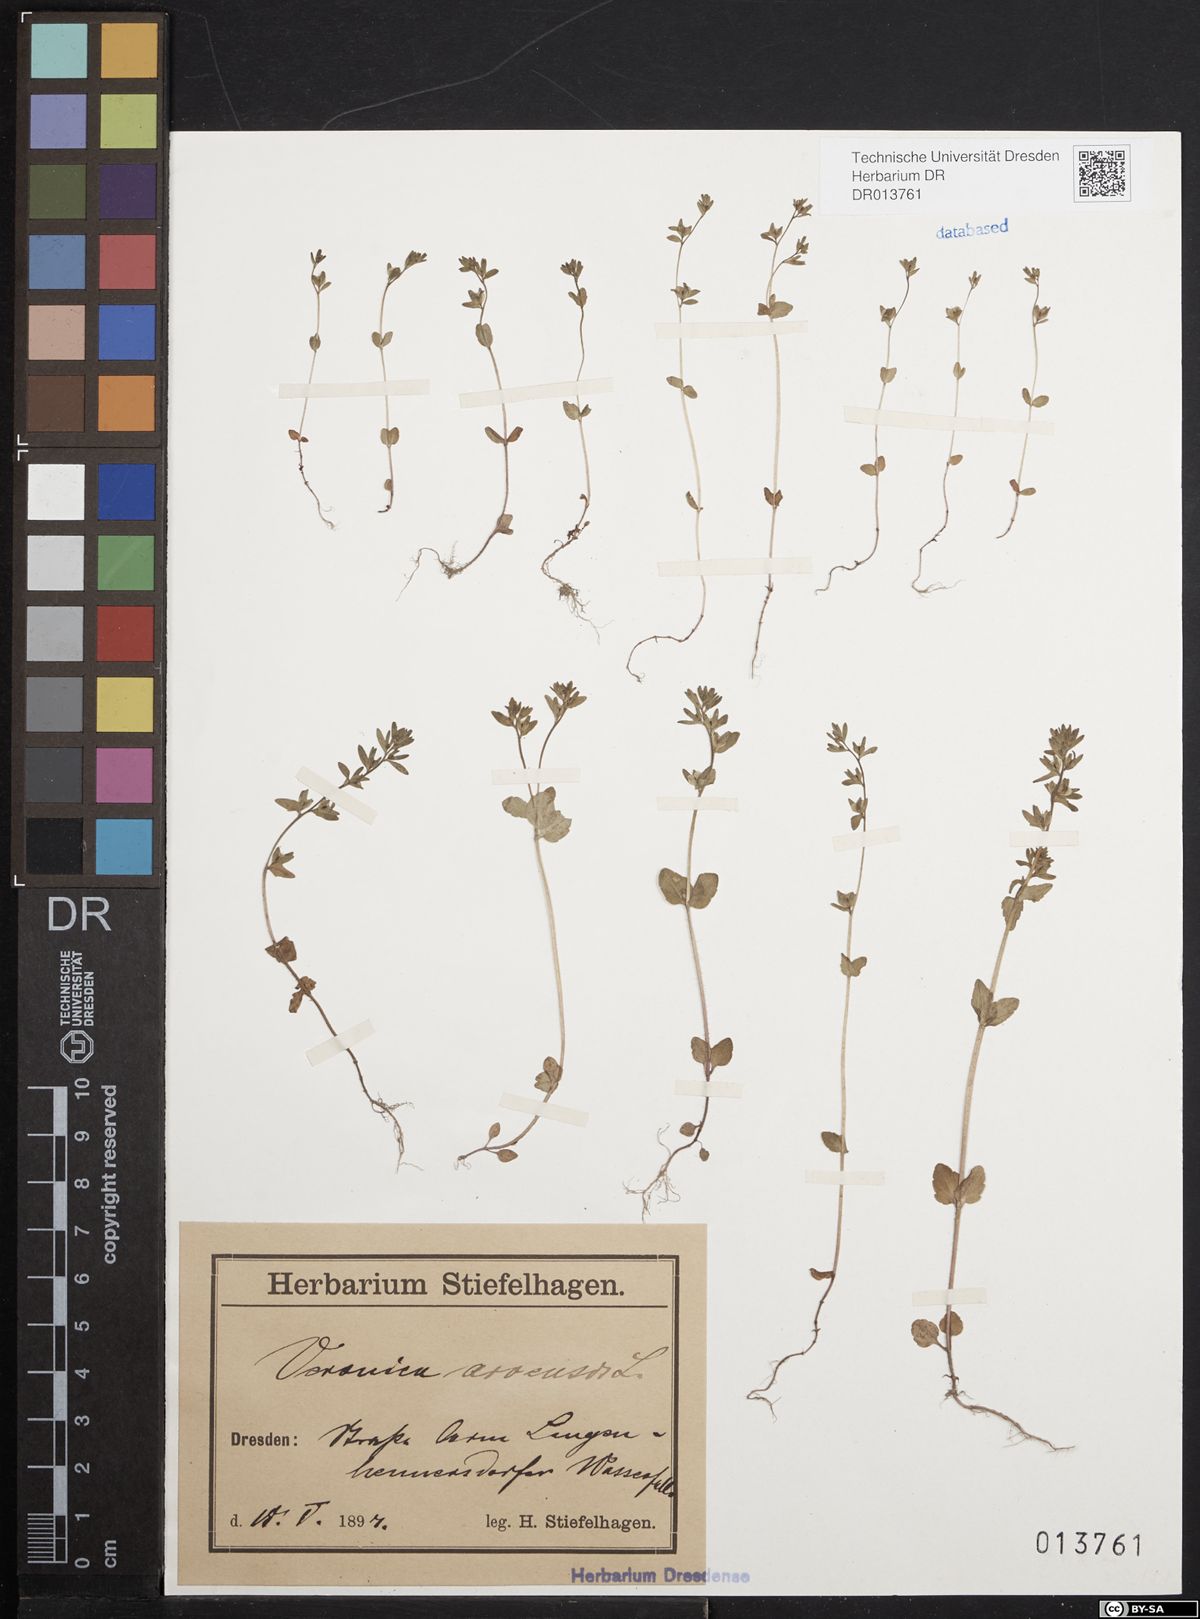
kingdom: Plantae
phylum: Tracheophyta
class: Magnoliopsida
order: Lamiales
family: Plantaginaceae
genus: Veronica
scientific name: Veronica arvensis
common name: Corn speedwell
